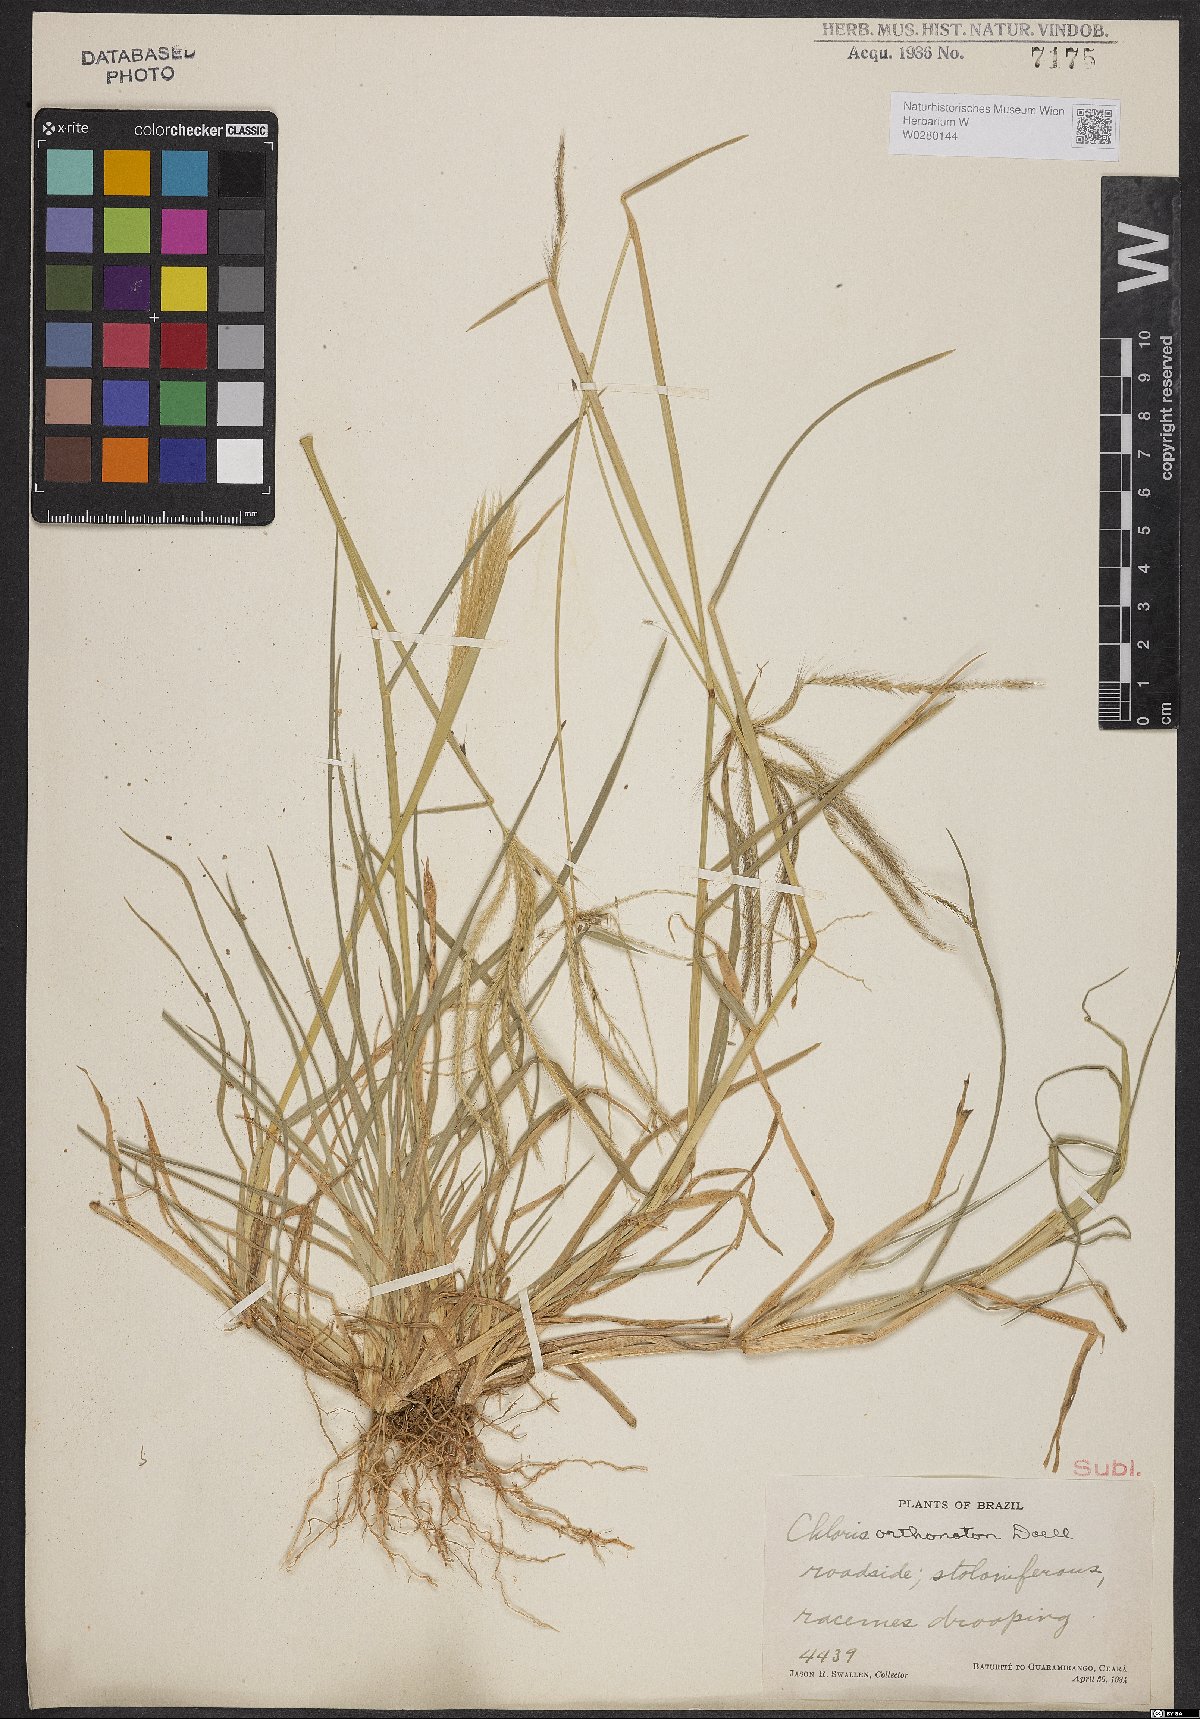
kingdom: Plantae
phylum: Tracheophyta
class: Liliopsida
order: Poales
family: Poaceae
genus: Chloris
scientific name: Chloris orthonoton
